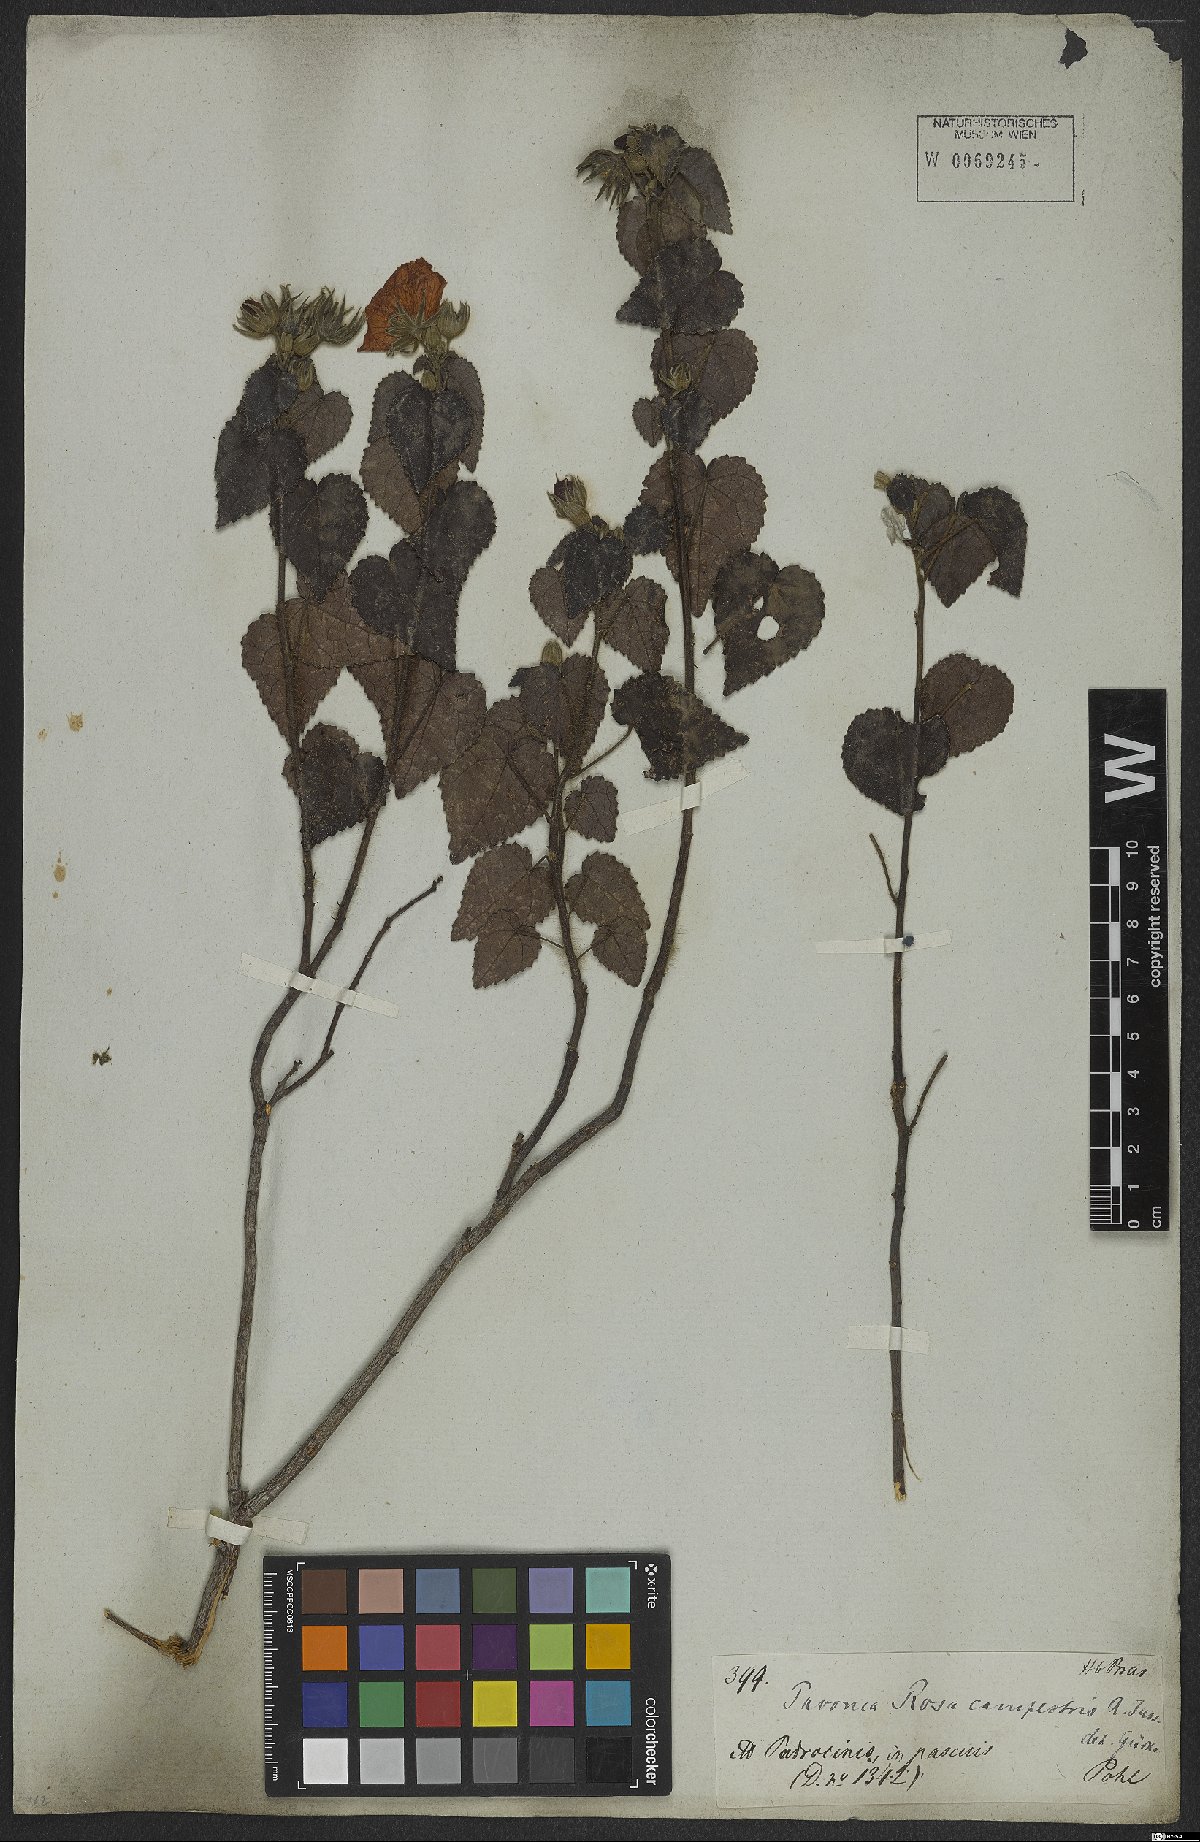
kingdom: Plantae
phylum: Tracheophyta
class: Magnoliopsida
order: Malvales
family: Malvaceae
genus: Pavonia
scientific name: Pavonia rosa-campestris
